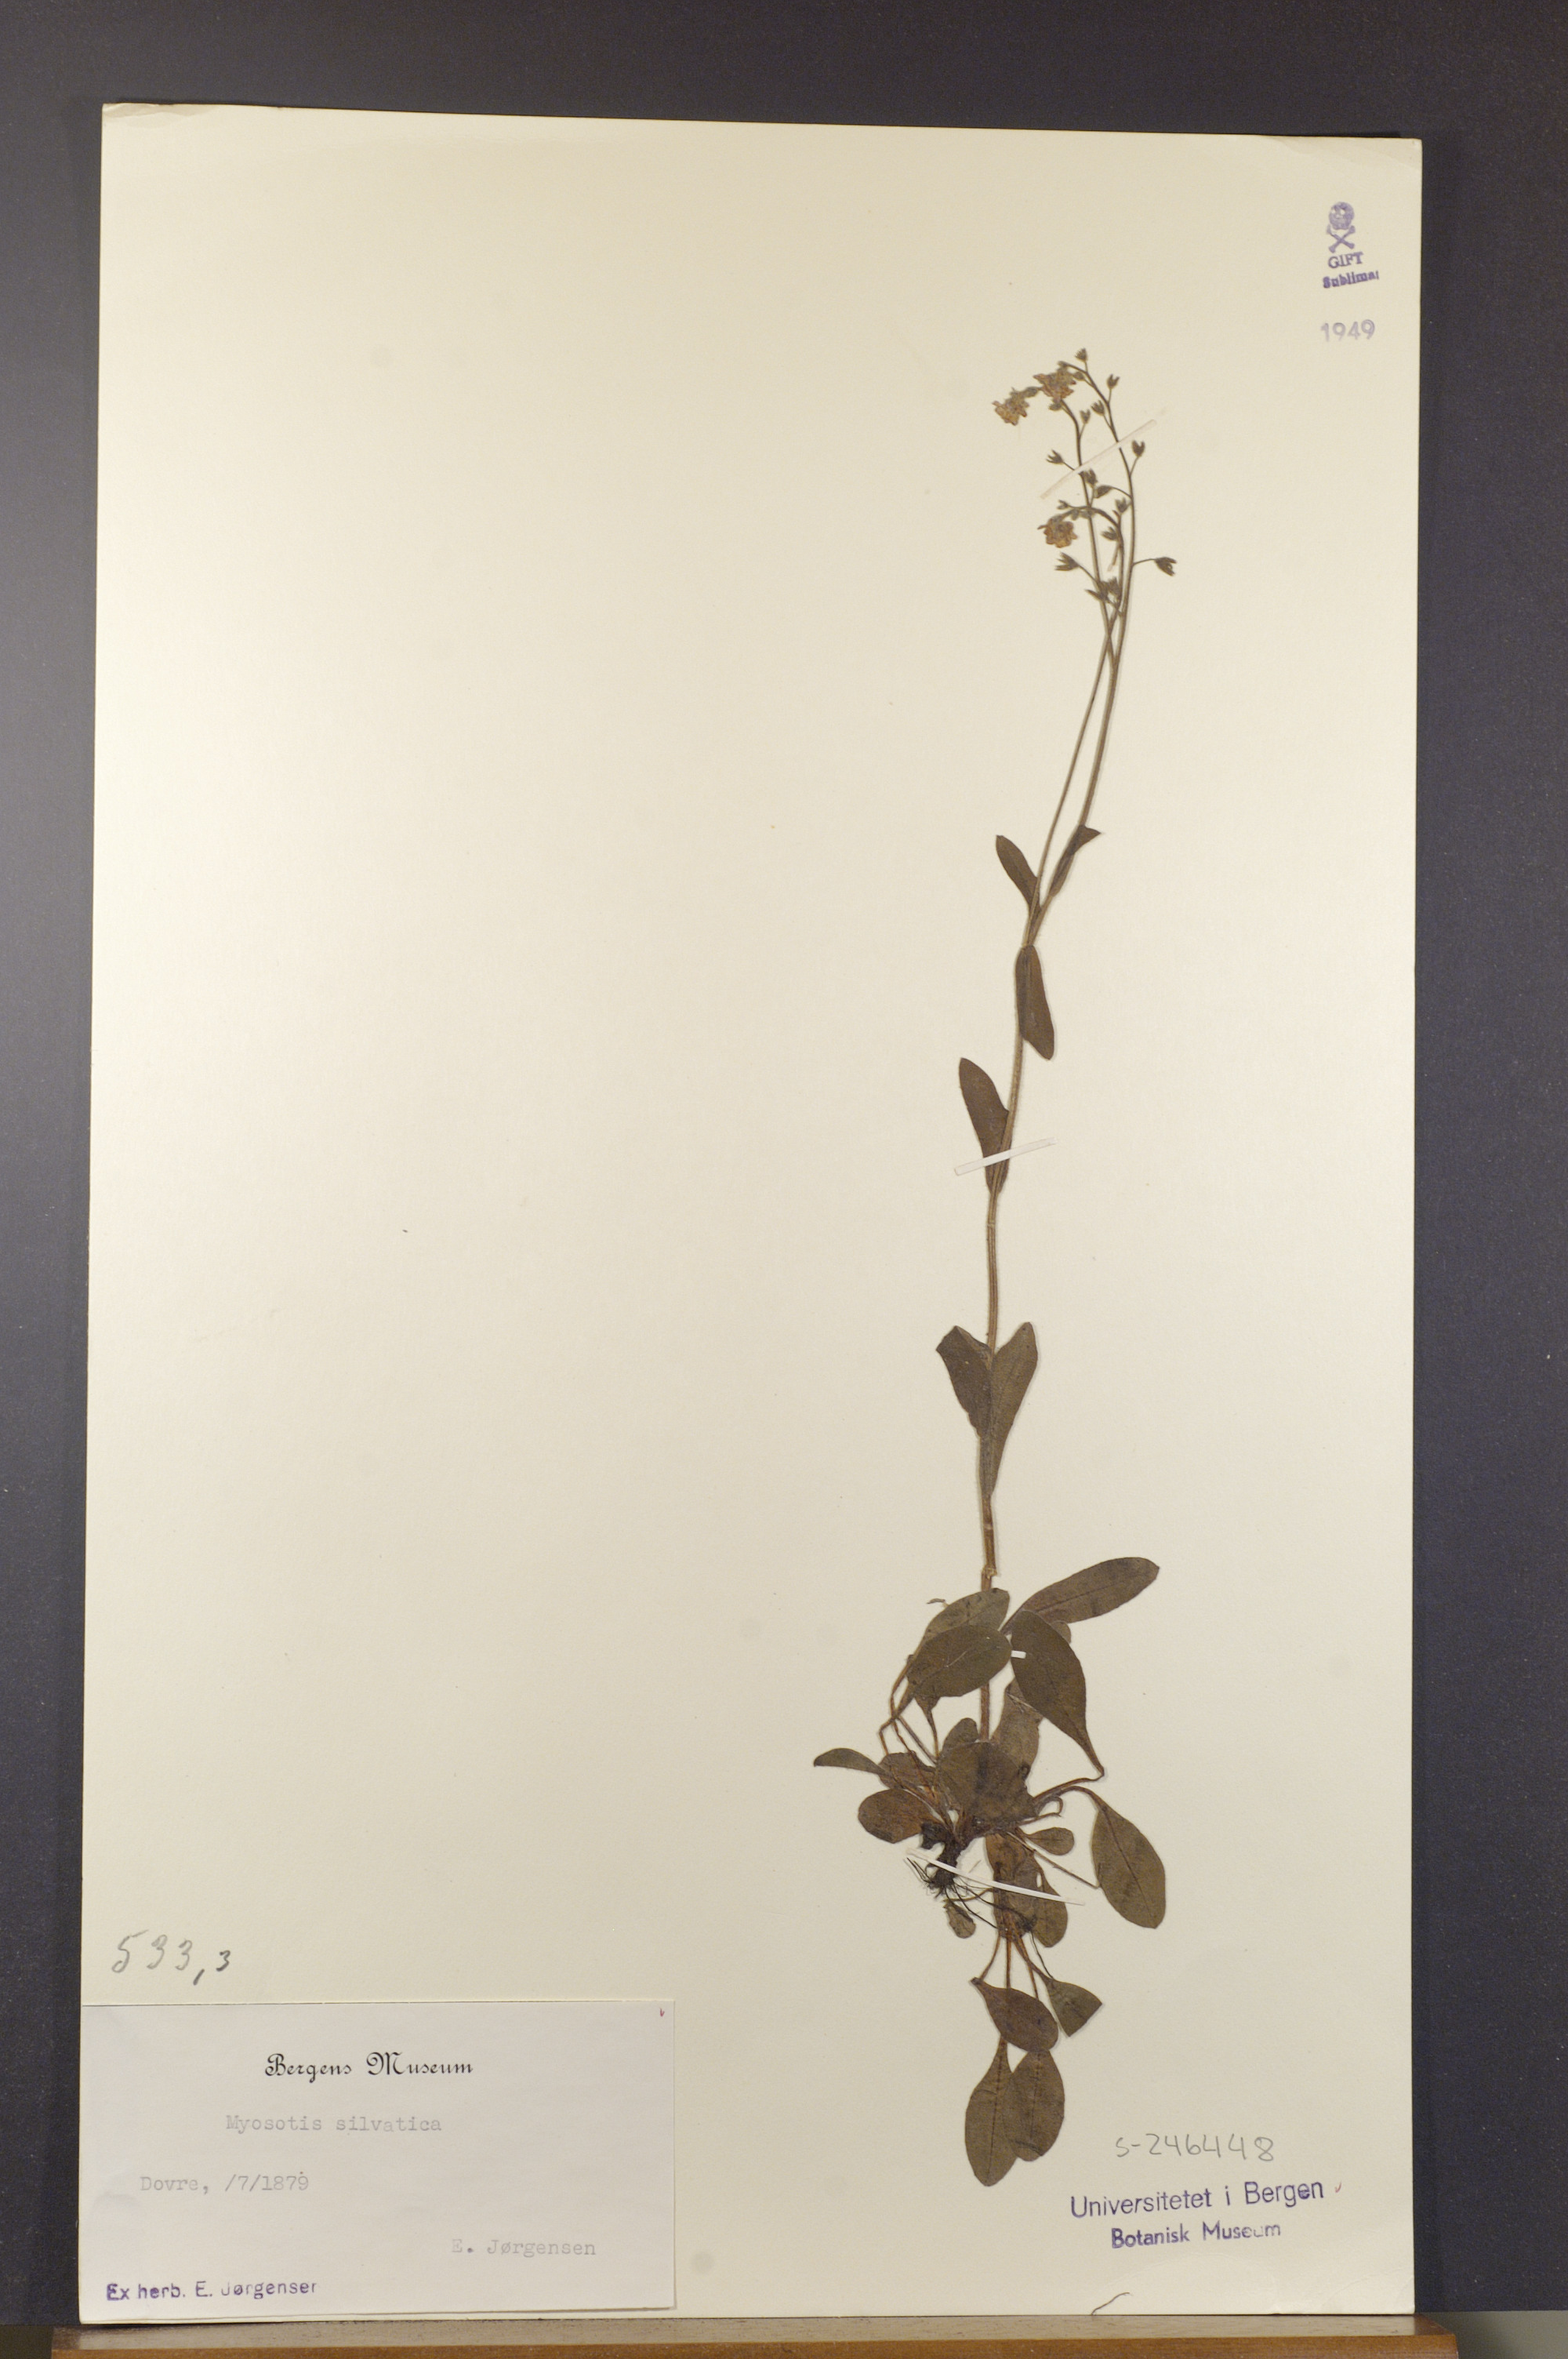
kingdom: Plantae
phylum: Tracheophyta
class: Magnoliopsida
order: Boraginales
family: Boraginaceae
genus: Myosotis
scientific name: Myosotis decumbens
